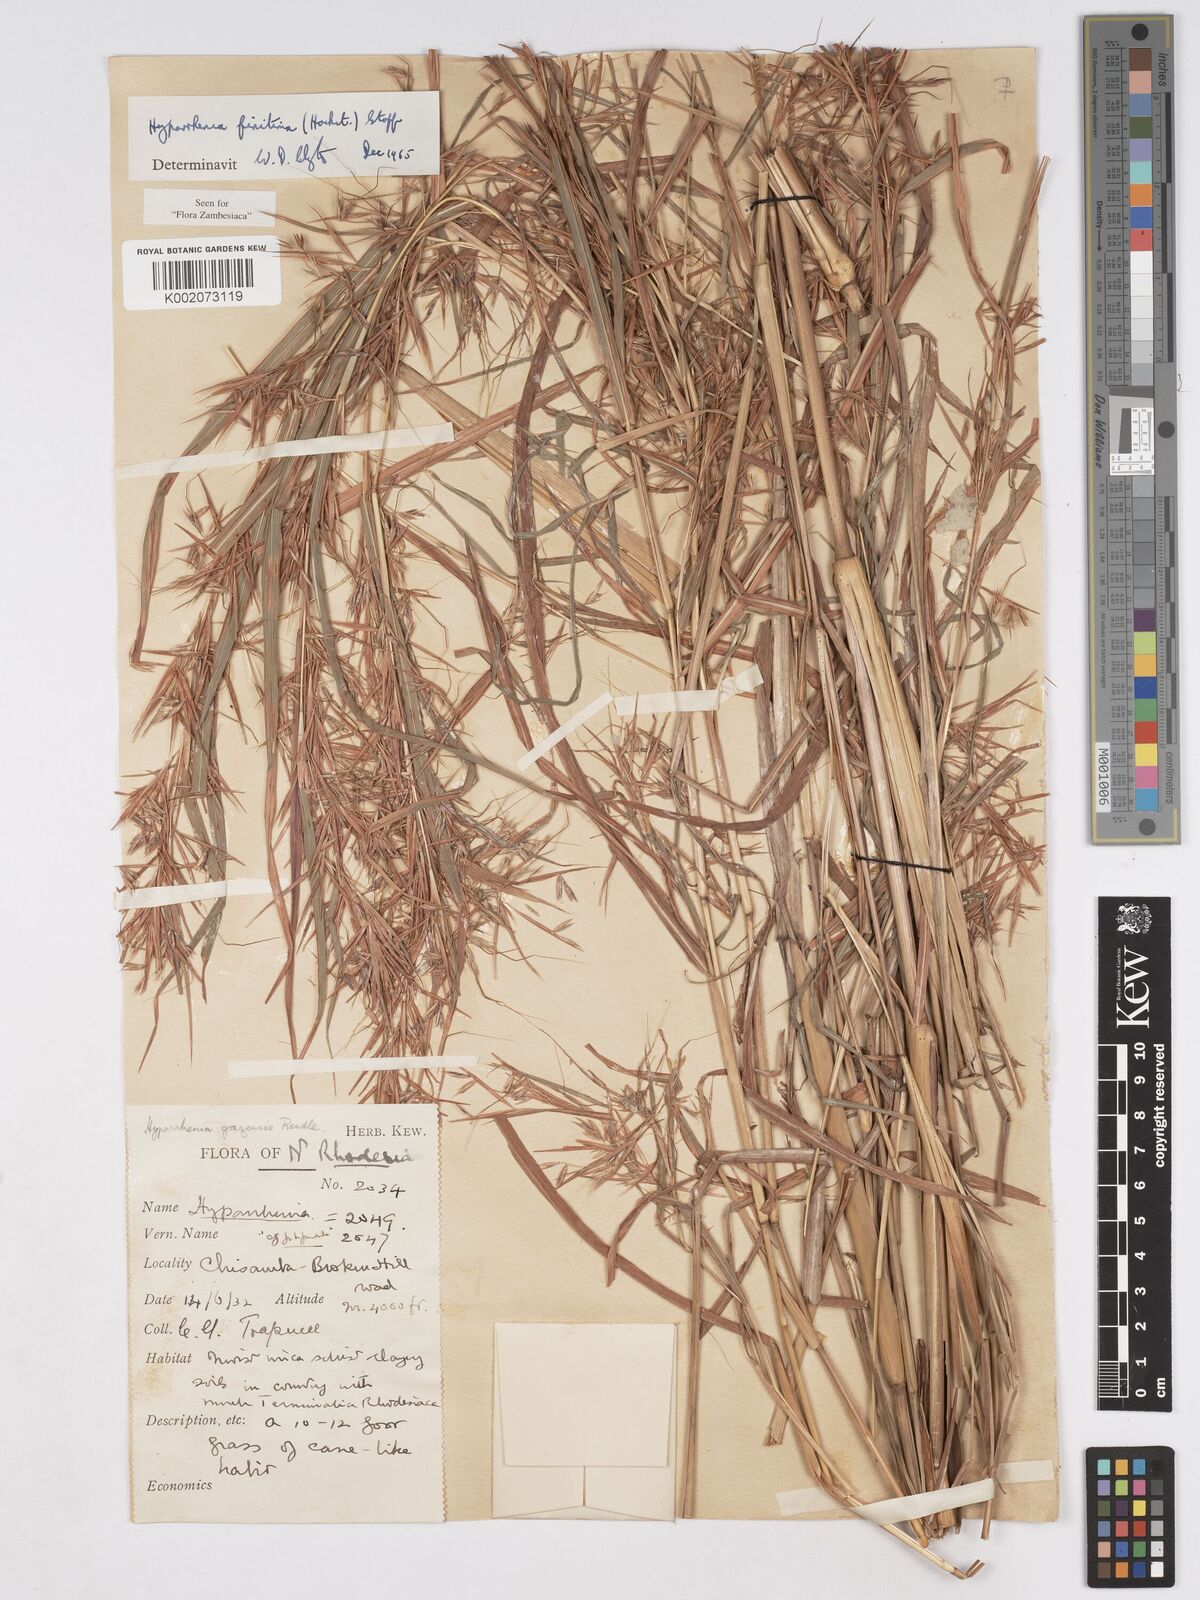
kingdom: Plantae
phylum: Tracheophyta
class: Liliopsida
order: Poales
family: Poaceae
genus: Hyparrhenia
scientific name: Hyparrhenia finitima
